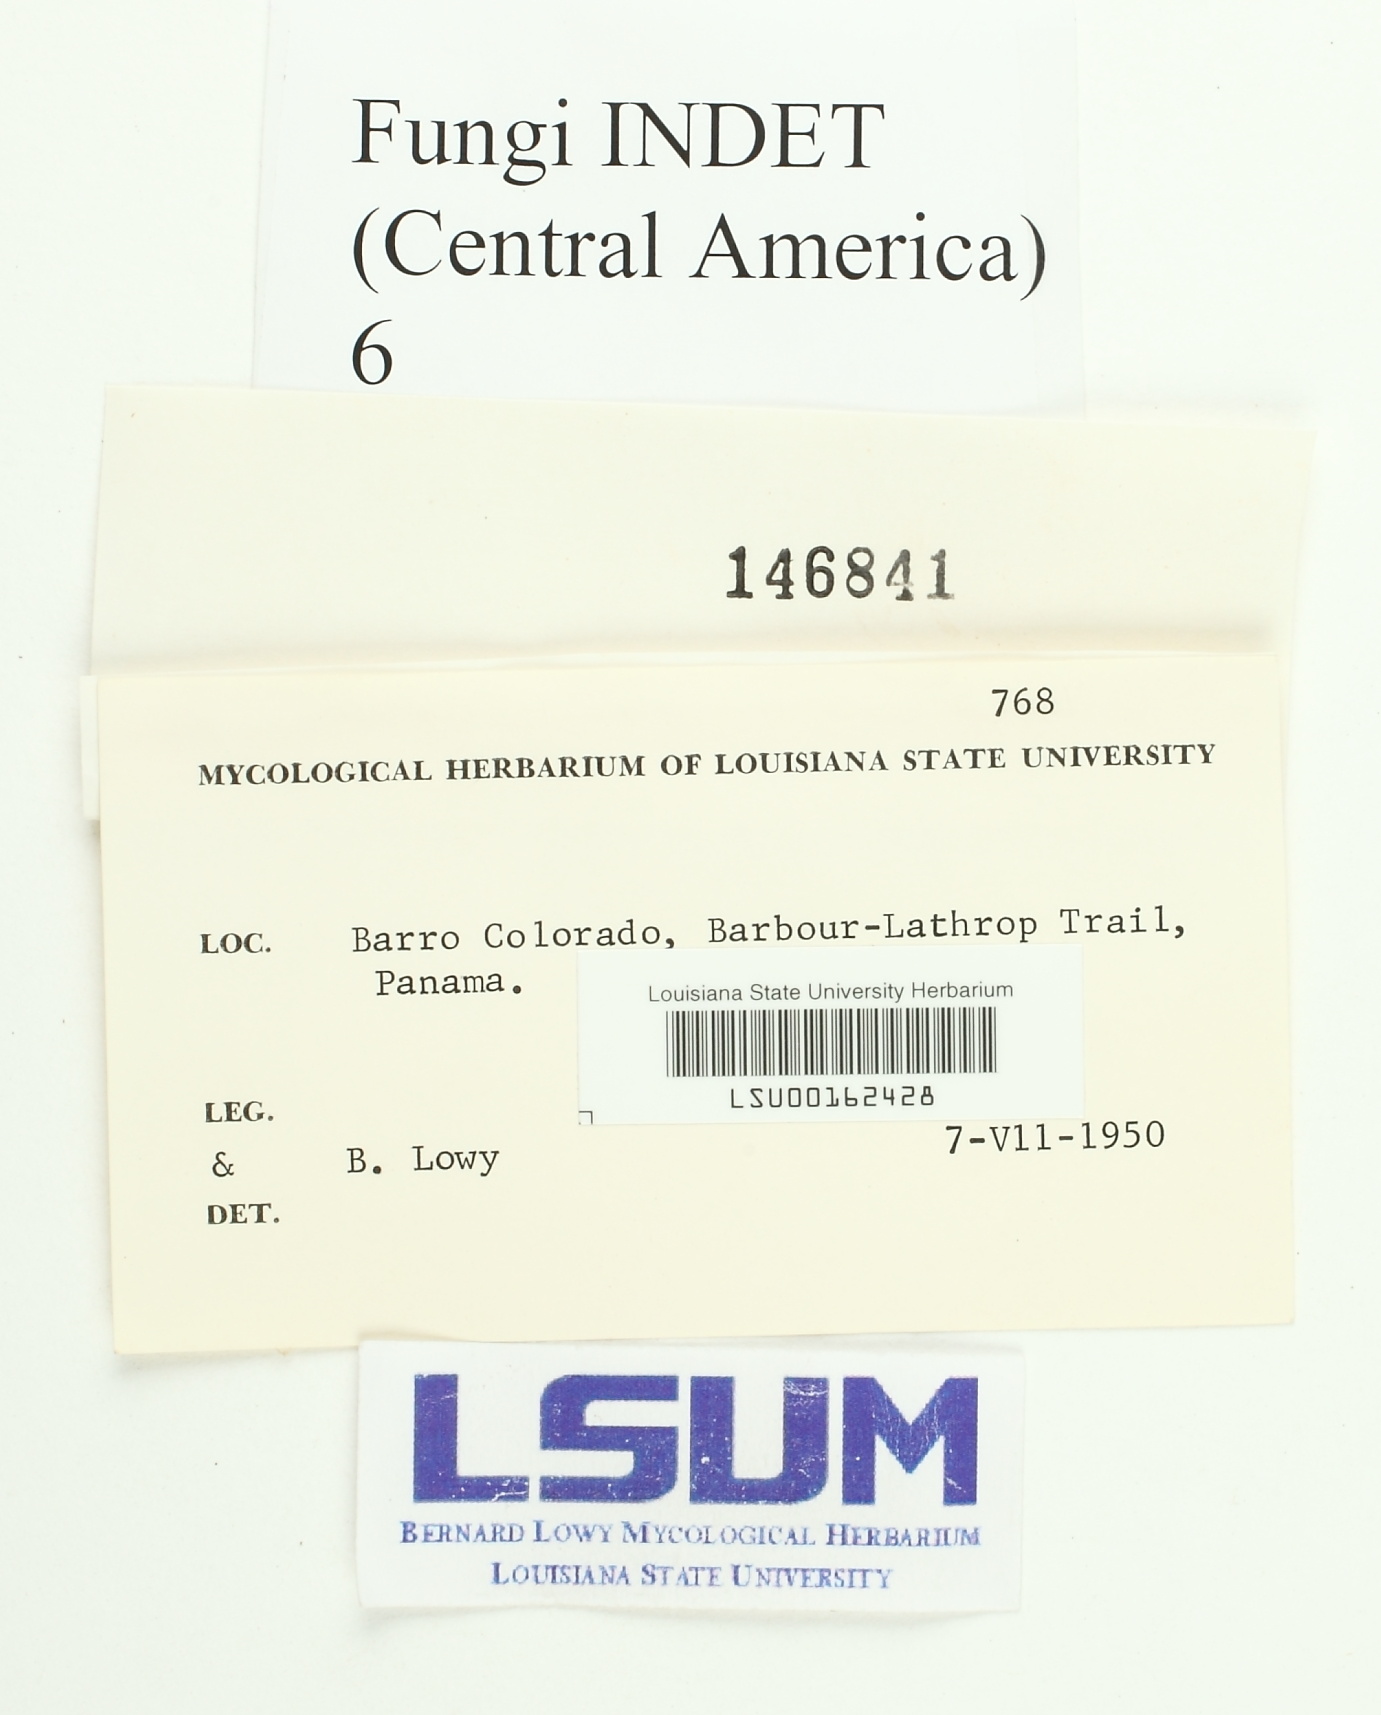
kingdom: Fungi
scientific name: Fungi
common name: Fungi
